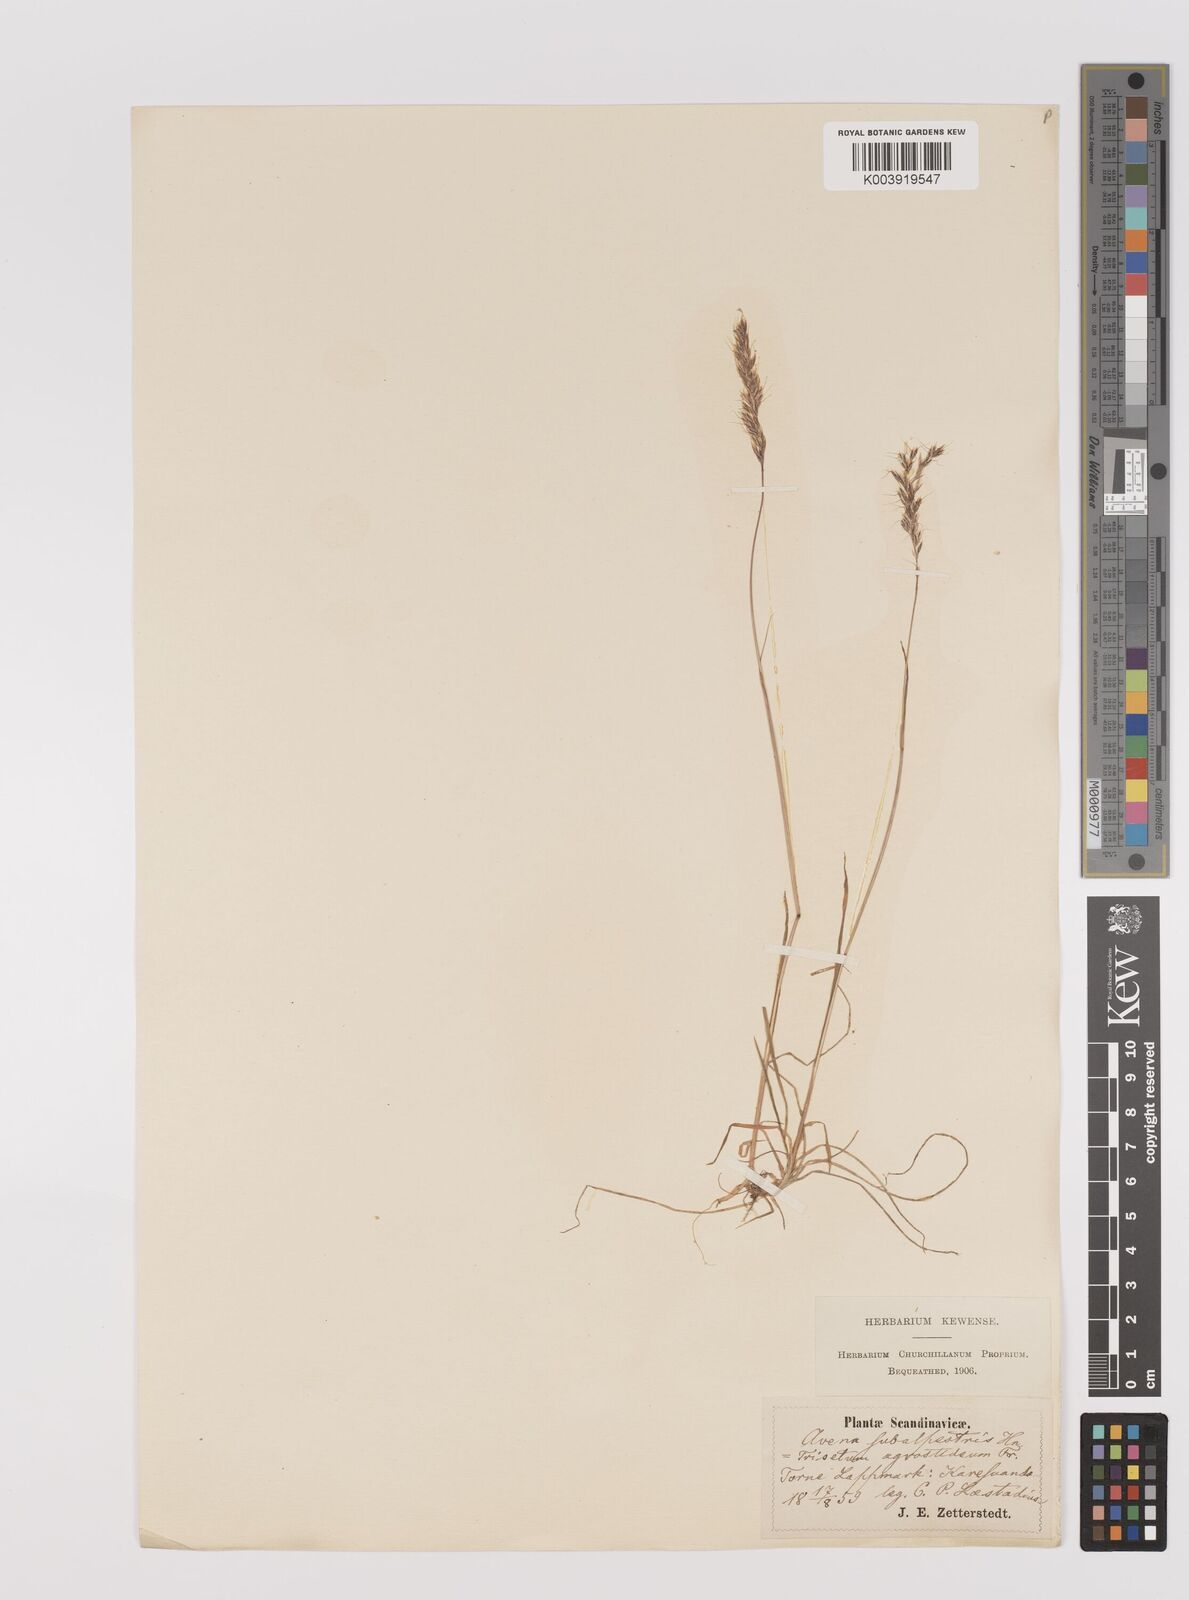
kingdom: Plantae
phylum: Tracheophyta
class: Liliopsida
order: Poales
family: Poaceae
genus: Koeleria
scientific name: Koeleria subalpestris
